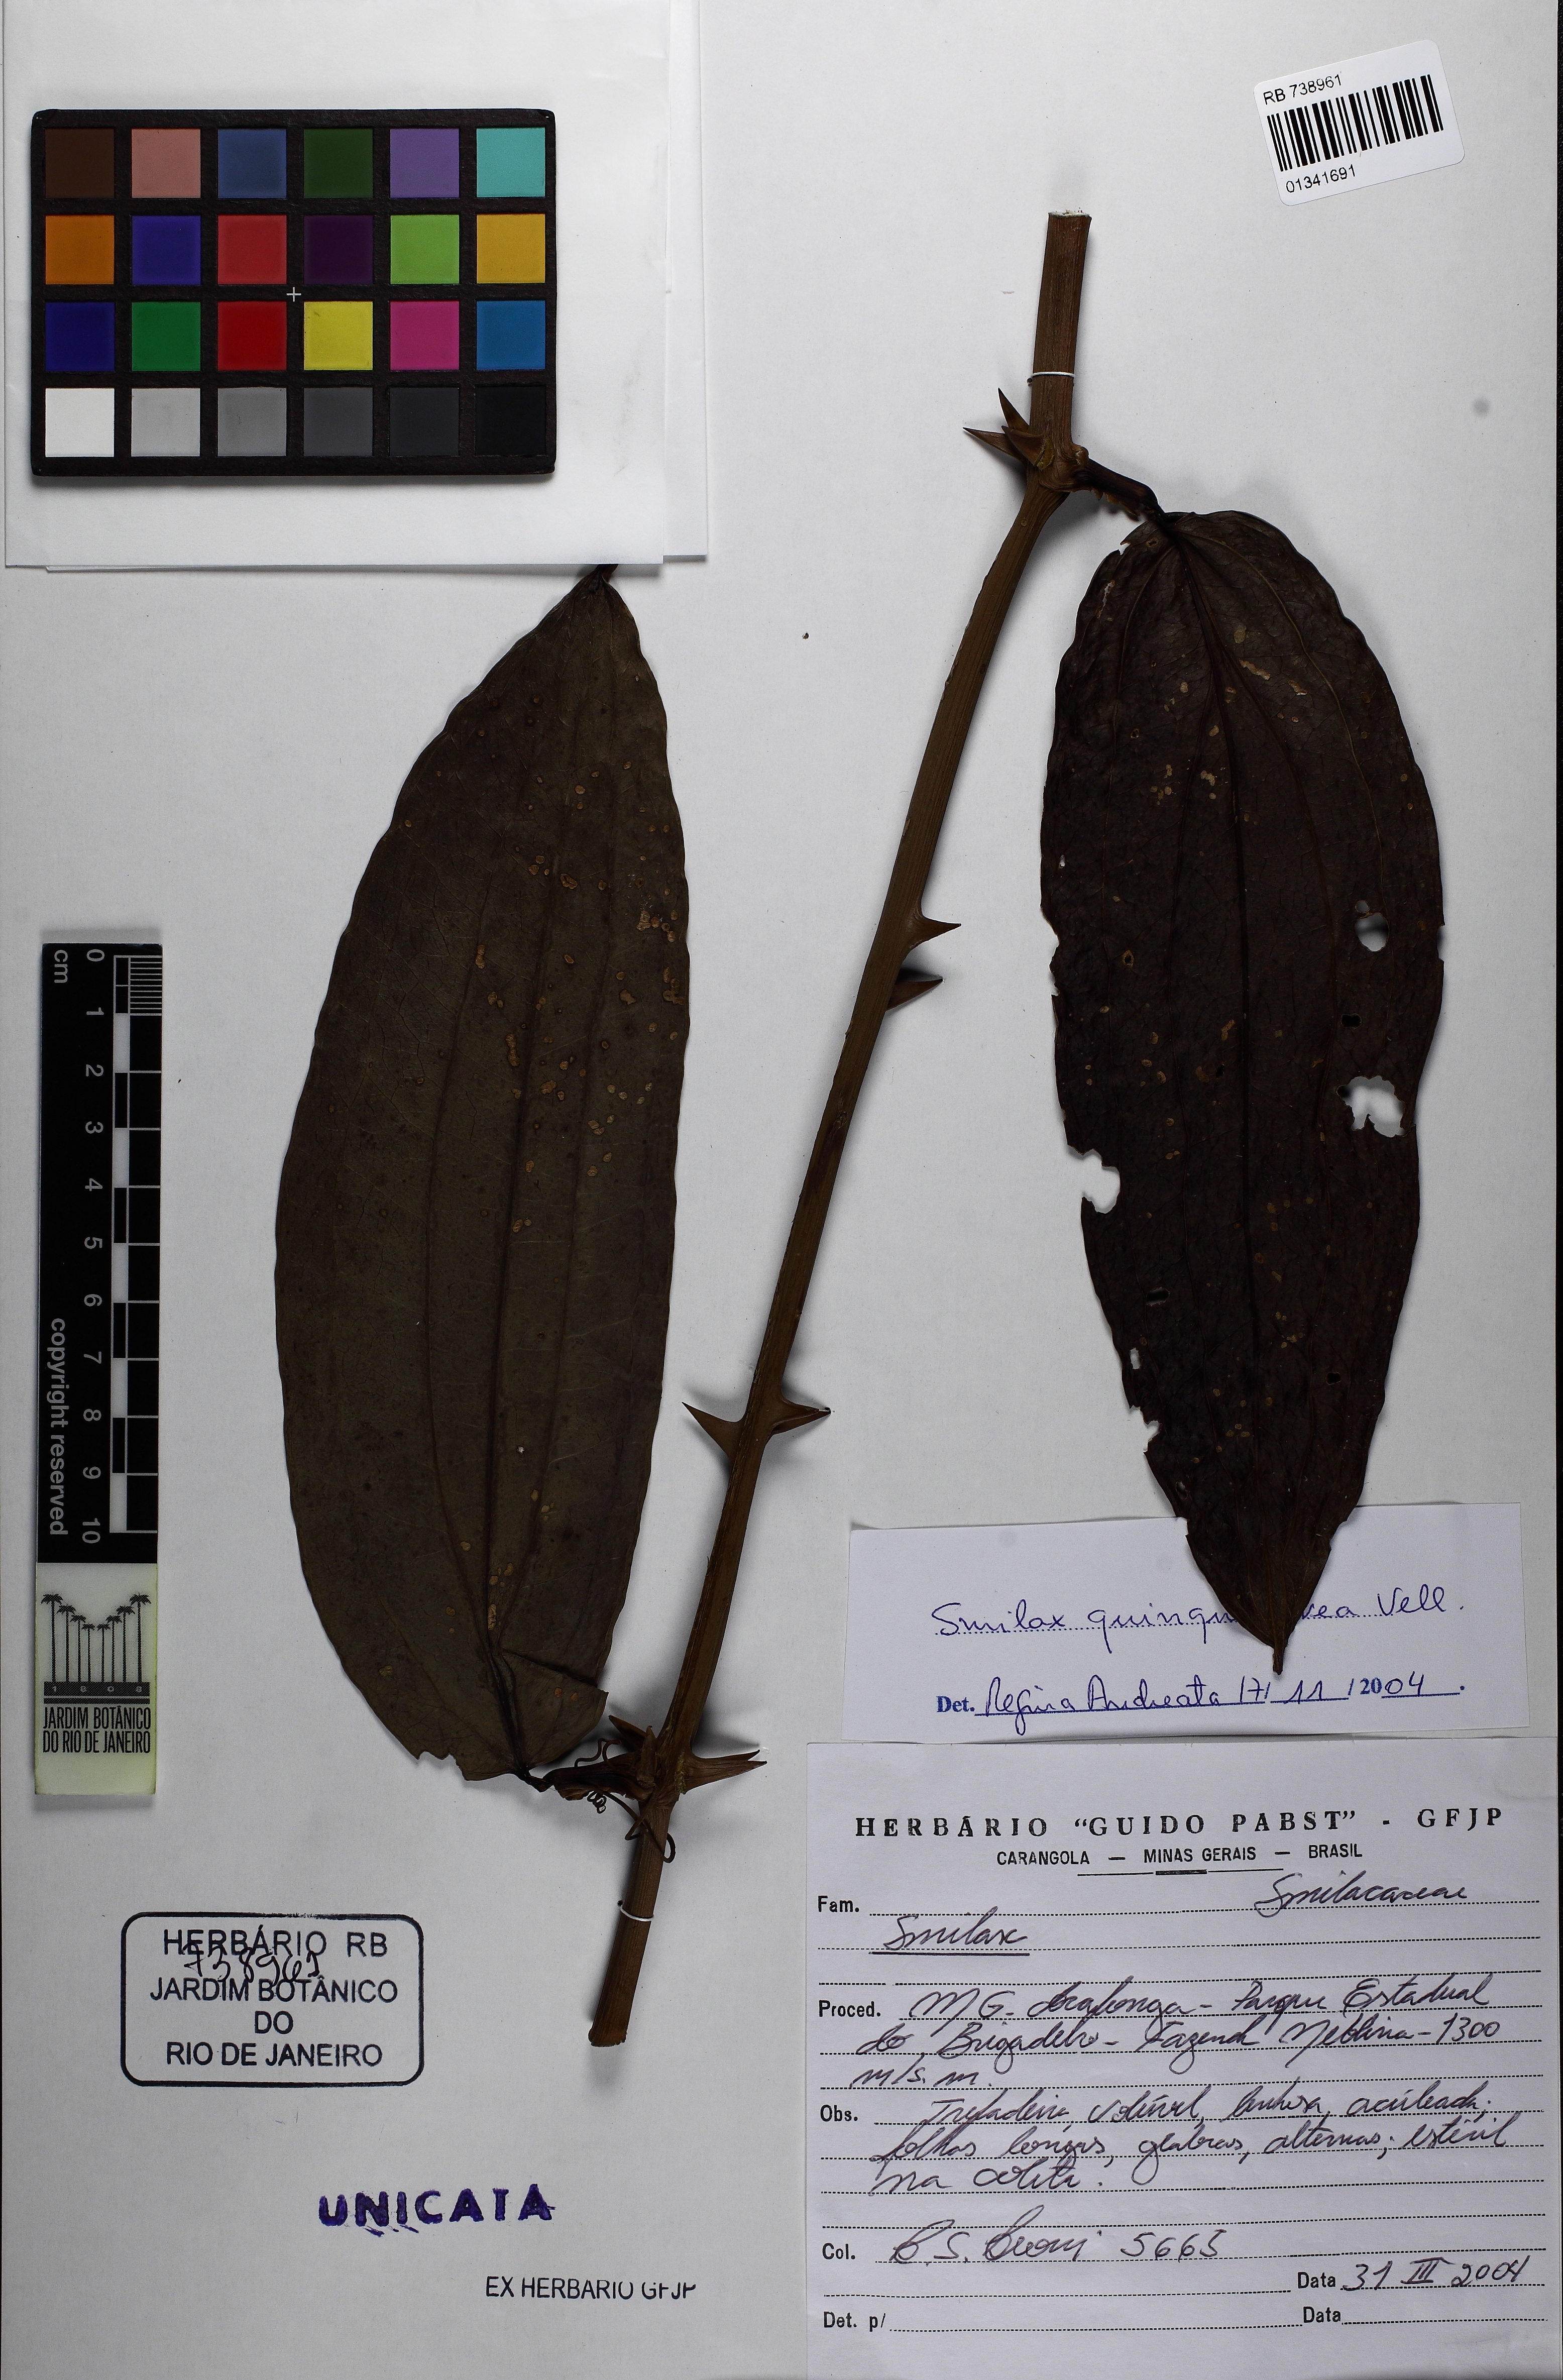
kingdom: Plantae
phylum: Tracheophyta
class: Liliopsida
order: Liliales
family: Smilacaceae
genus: Smilax
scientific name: Smilax quinquenervia
